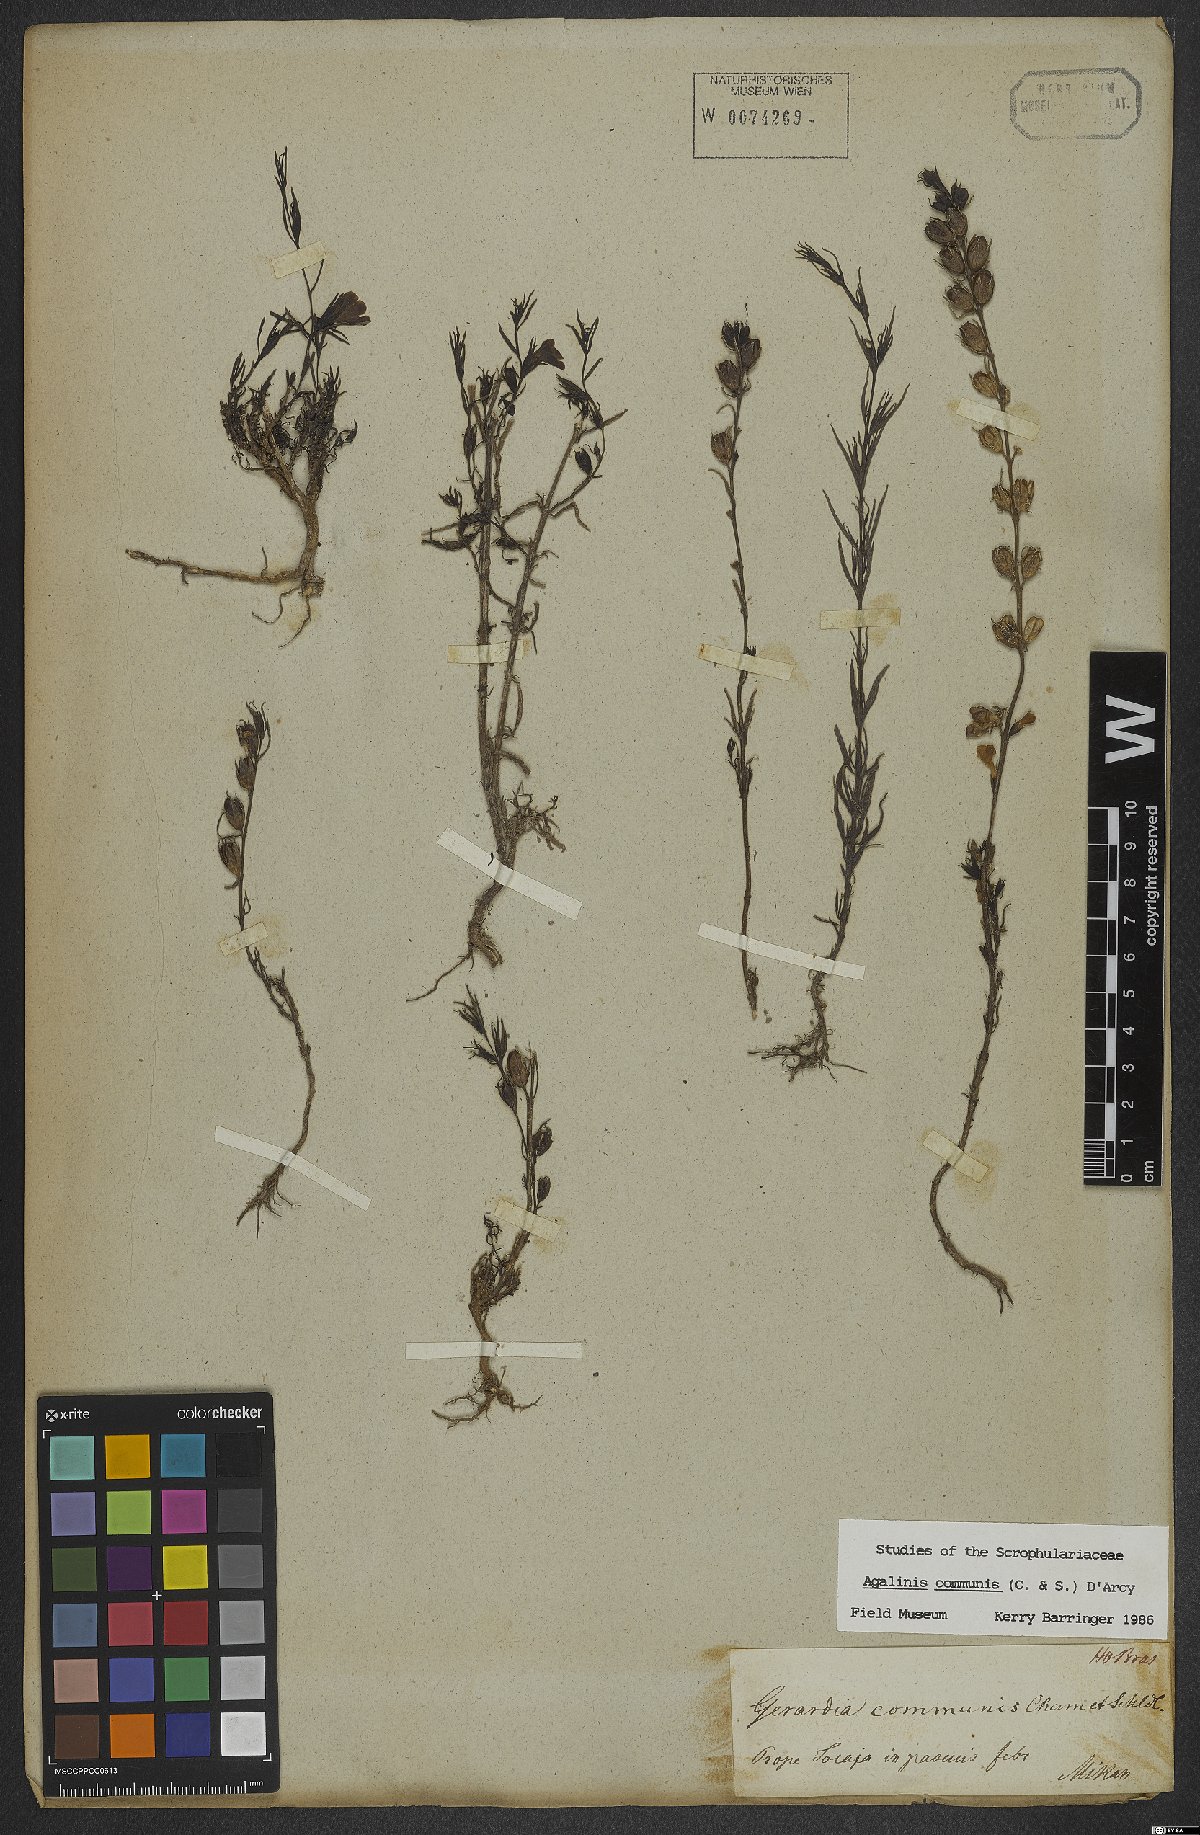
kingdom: Plantae
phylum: Tracheophyta
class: Magnoliopsida
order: Lamiales
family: Scrophulariaceae
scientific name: Scrophulariaceae
